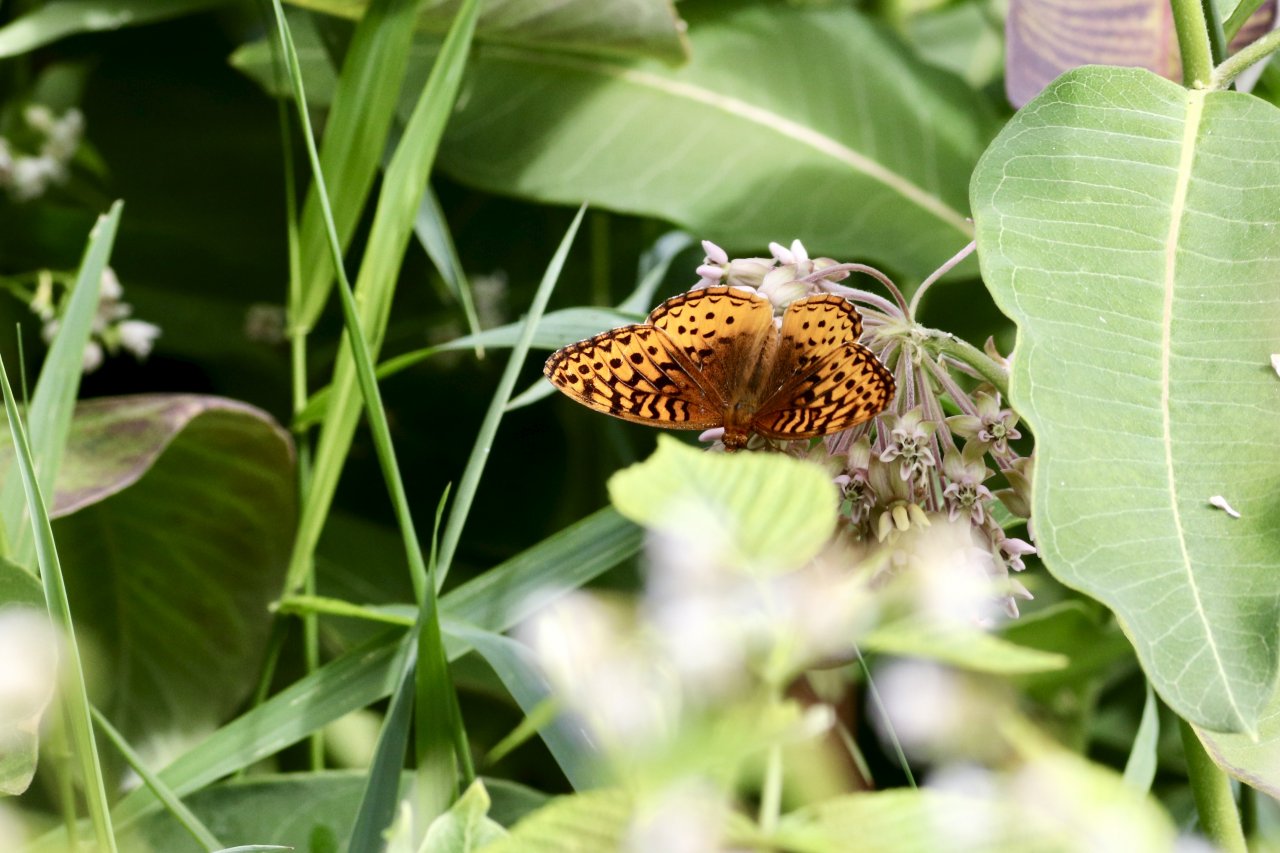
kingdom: Animalia
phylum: Arthropoda
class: Insecta
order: Lepidoptera
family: Nymphalidae
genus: Speyeria
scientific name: Speyeria cybele
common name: Great Spangled Fritillary
